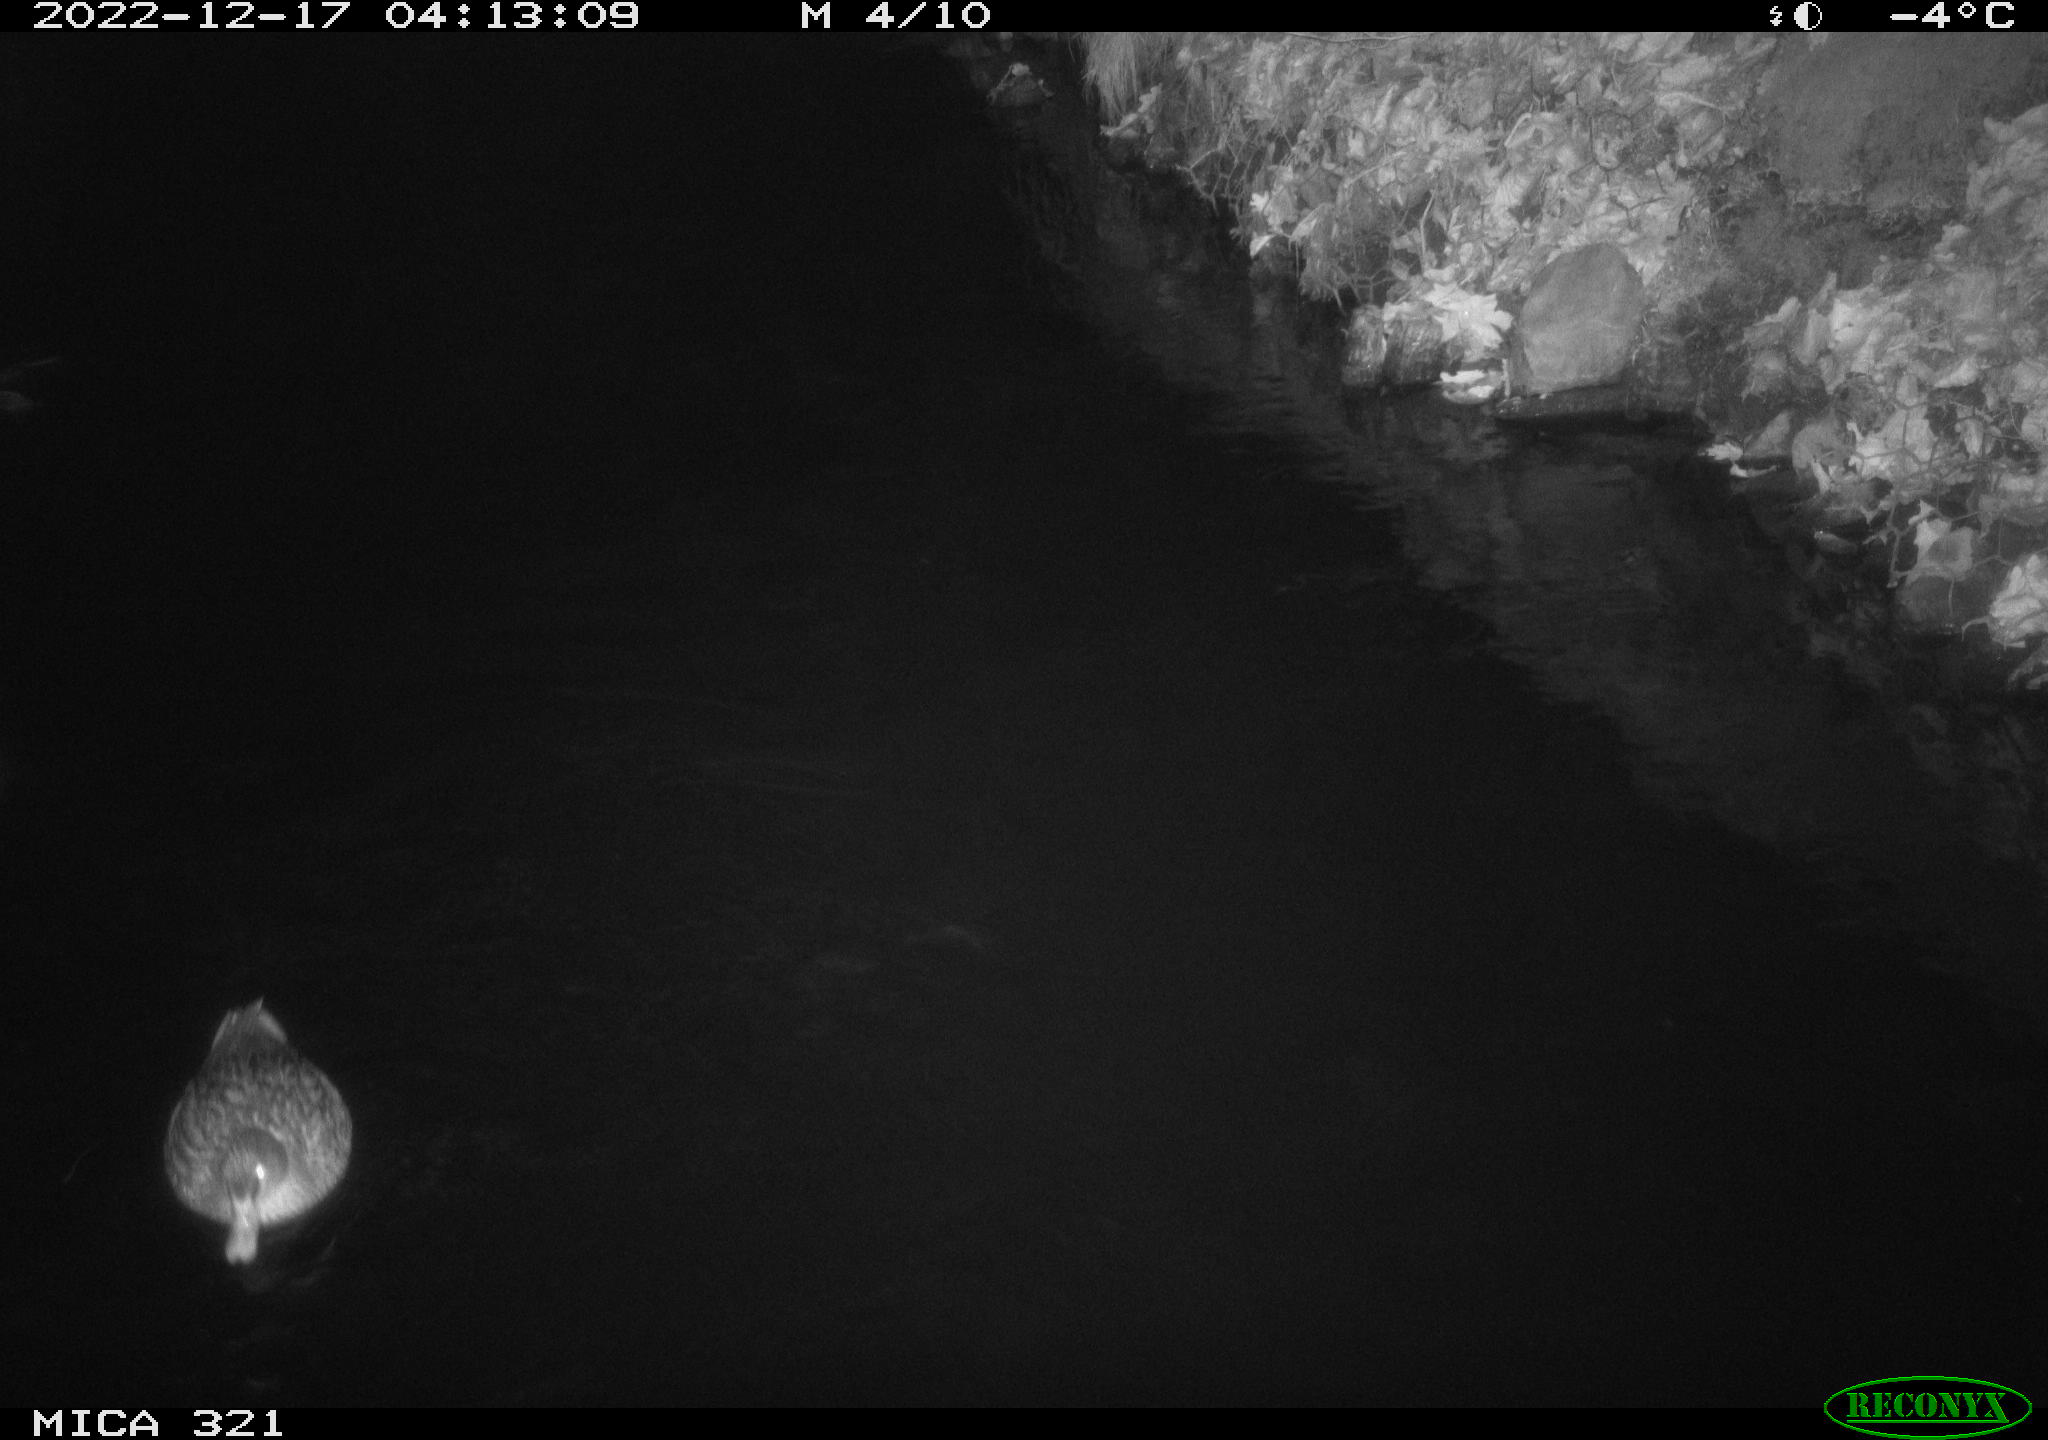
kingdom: Animalia
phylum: Chordata
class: Aves
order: Anseriformes
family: Anatidae
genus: Anas
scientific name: Anas
